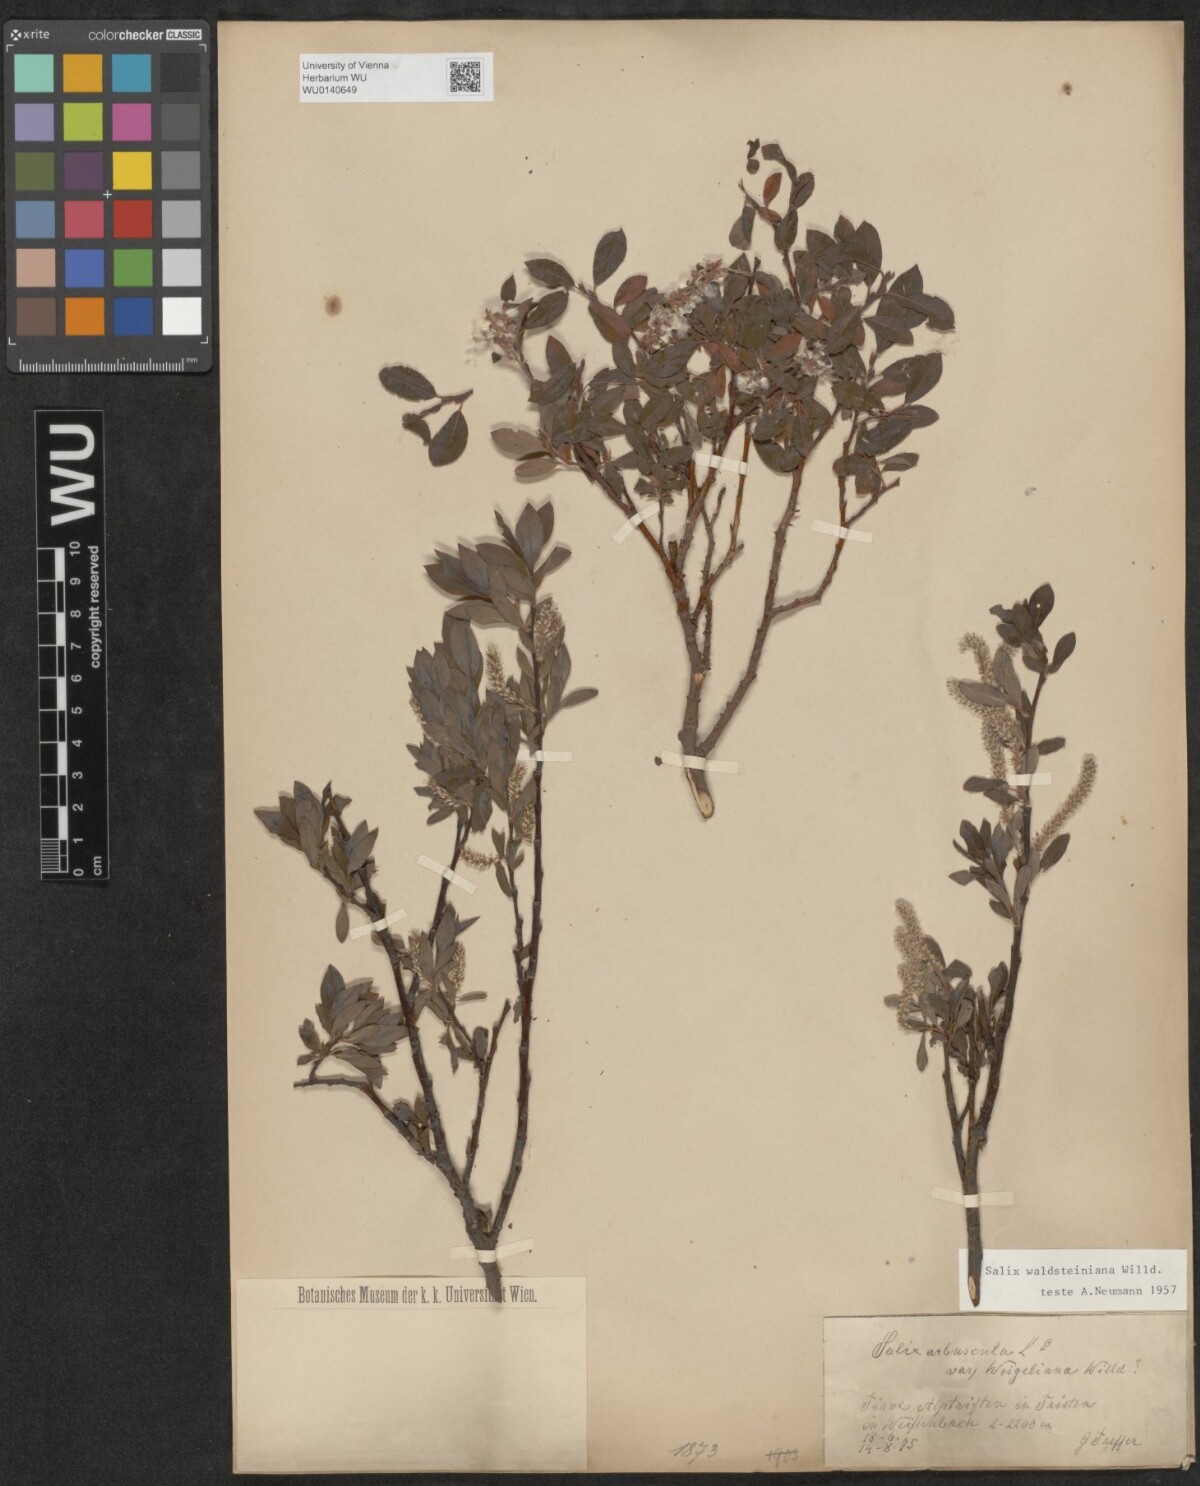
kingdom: Plantae
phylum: Tracheophyta
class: Magnoliopsida
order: Malpighiales
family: Salicaceae
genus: Salix
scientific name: Salix waldsteiniana
